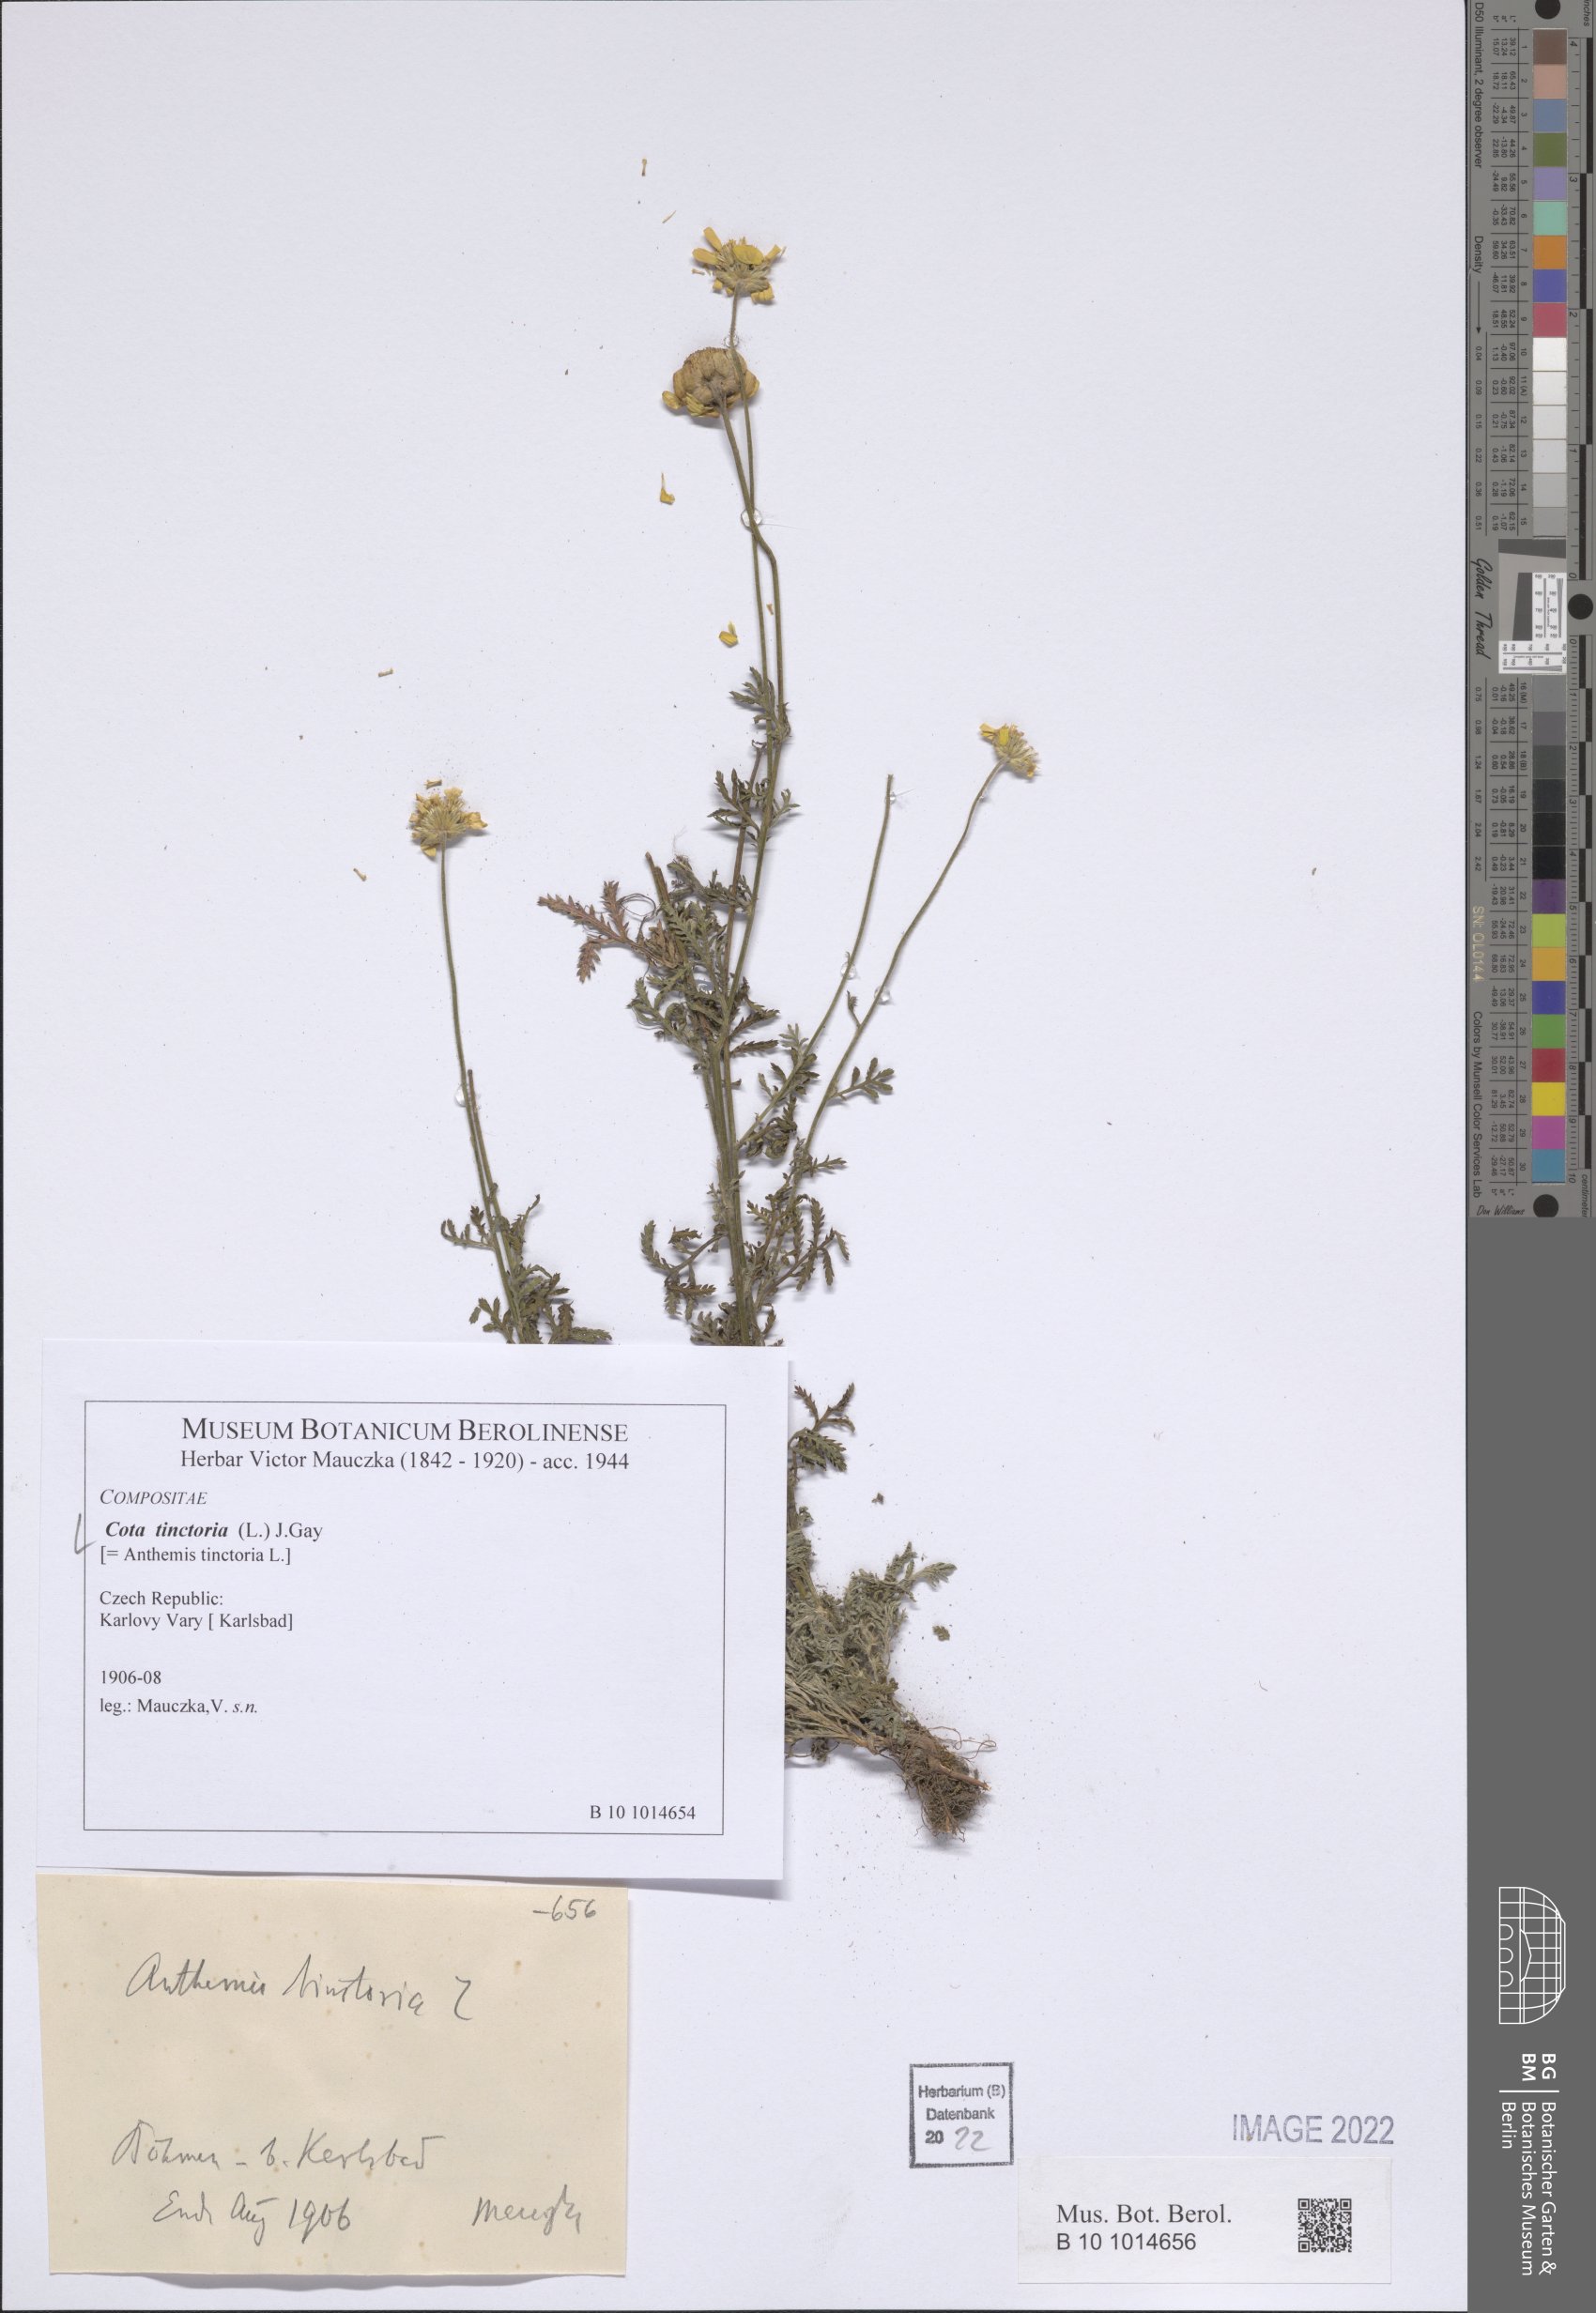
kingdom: Plantae
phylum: Tracheophyta
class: Magnoliopsida
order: Asterales
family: Asteraceae
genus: Cota
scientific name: Cota tinctoria
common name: Golden chamomile
